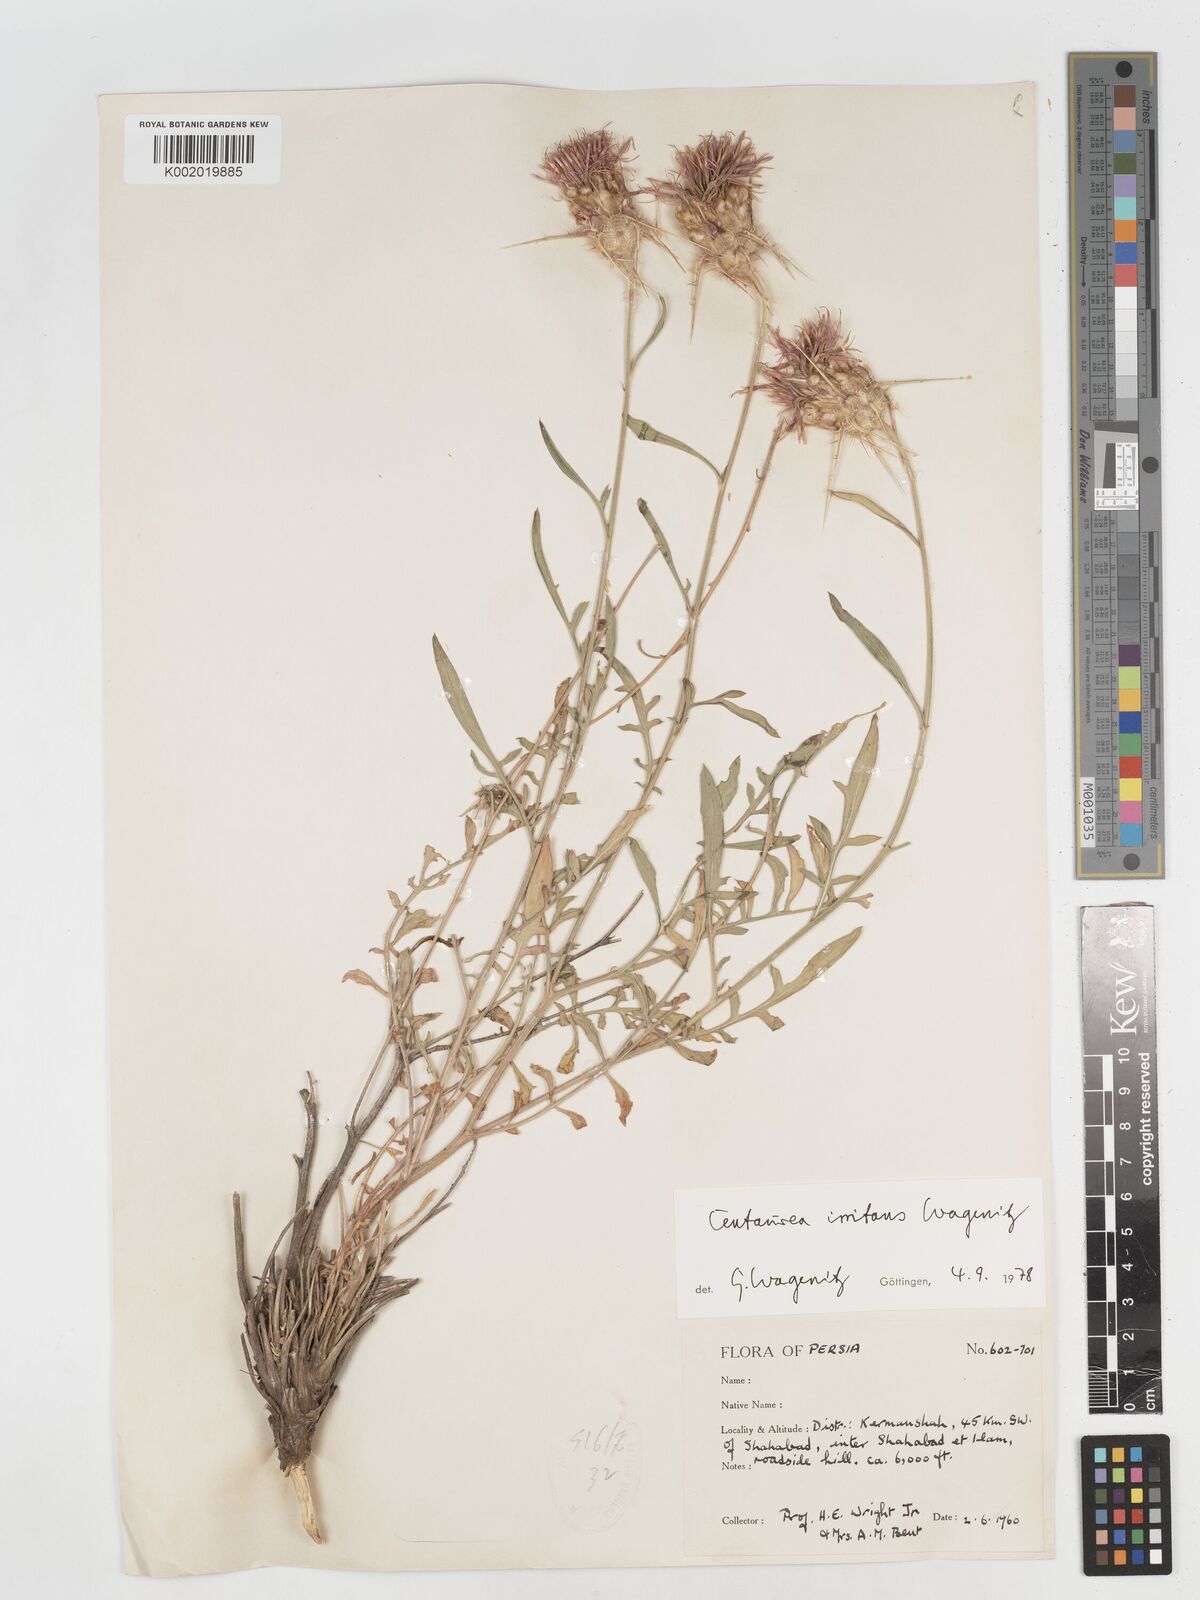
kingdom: Plantae
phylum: Tracheophyta
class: Magnoliopsida
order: Asterales
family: Asteraceae
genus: Centaurea
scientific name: Centaurea irritans
